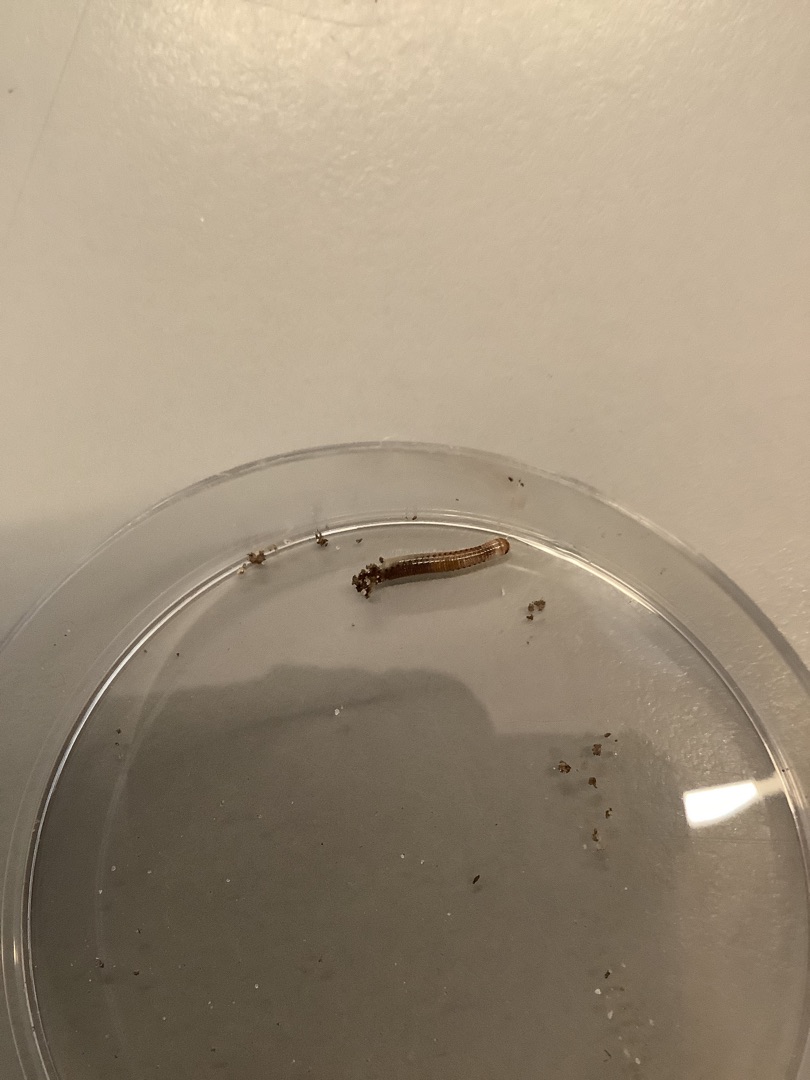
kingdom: Animalia
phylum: Arthropoda
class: Diplopoda
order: Julida
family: Julidae
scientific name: Julidae
